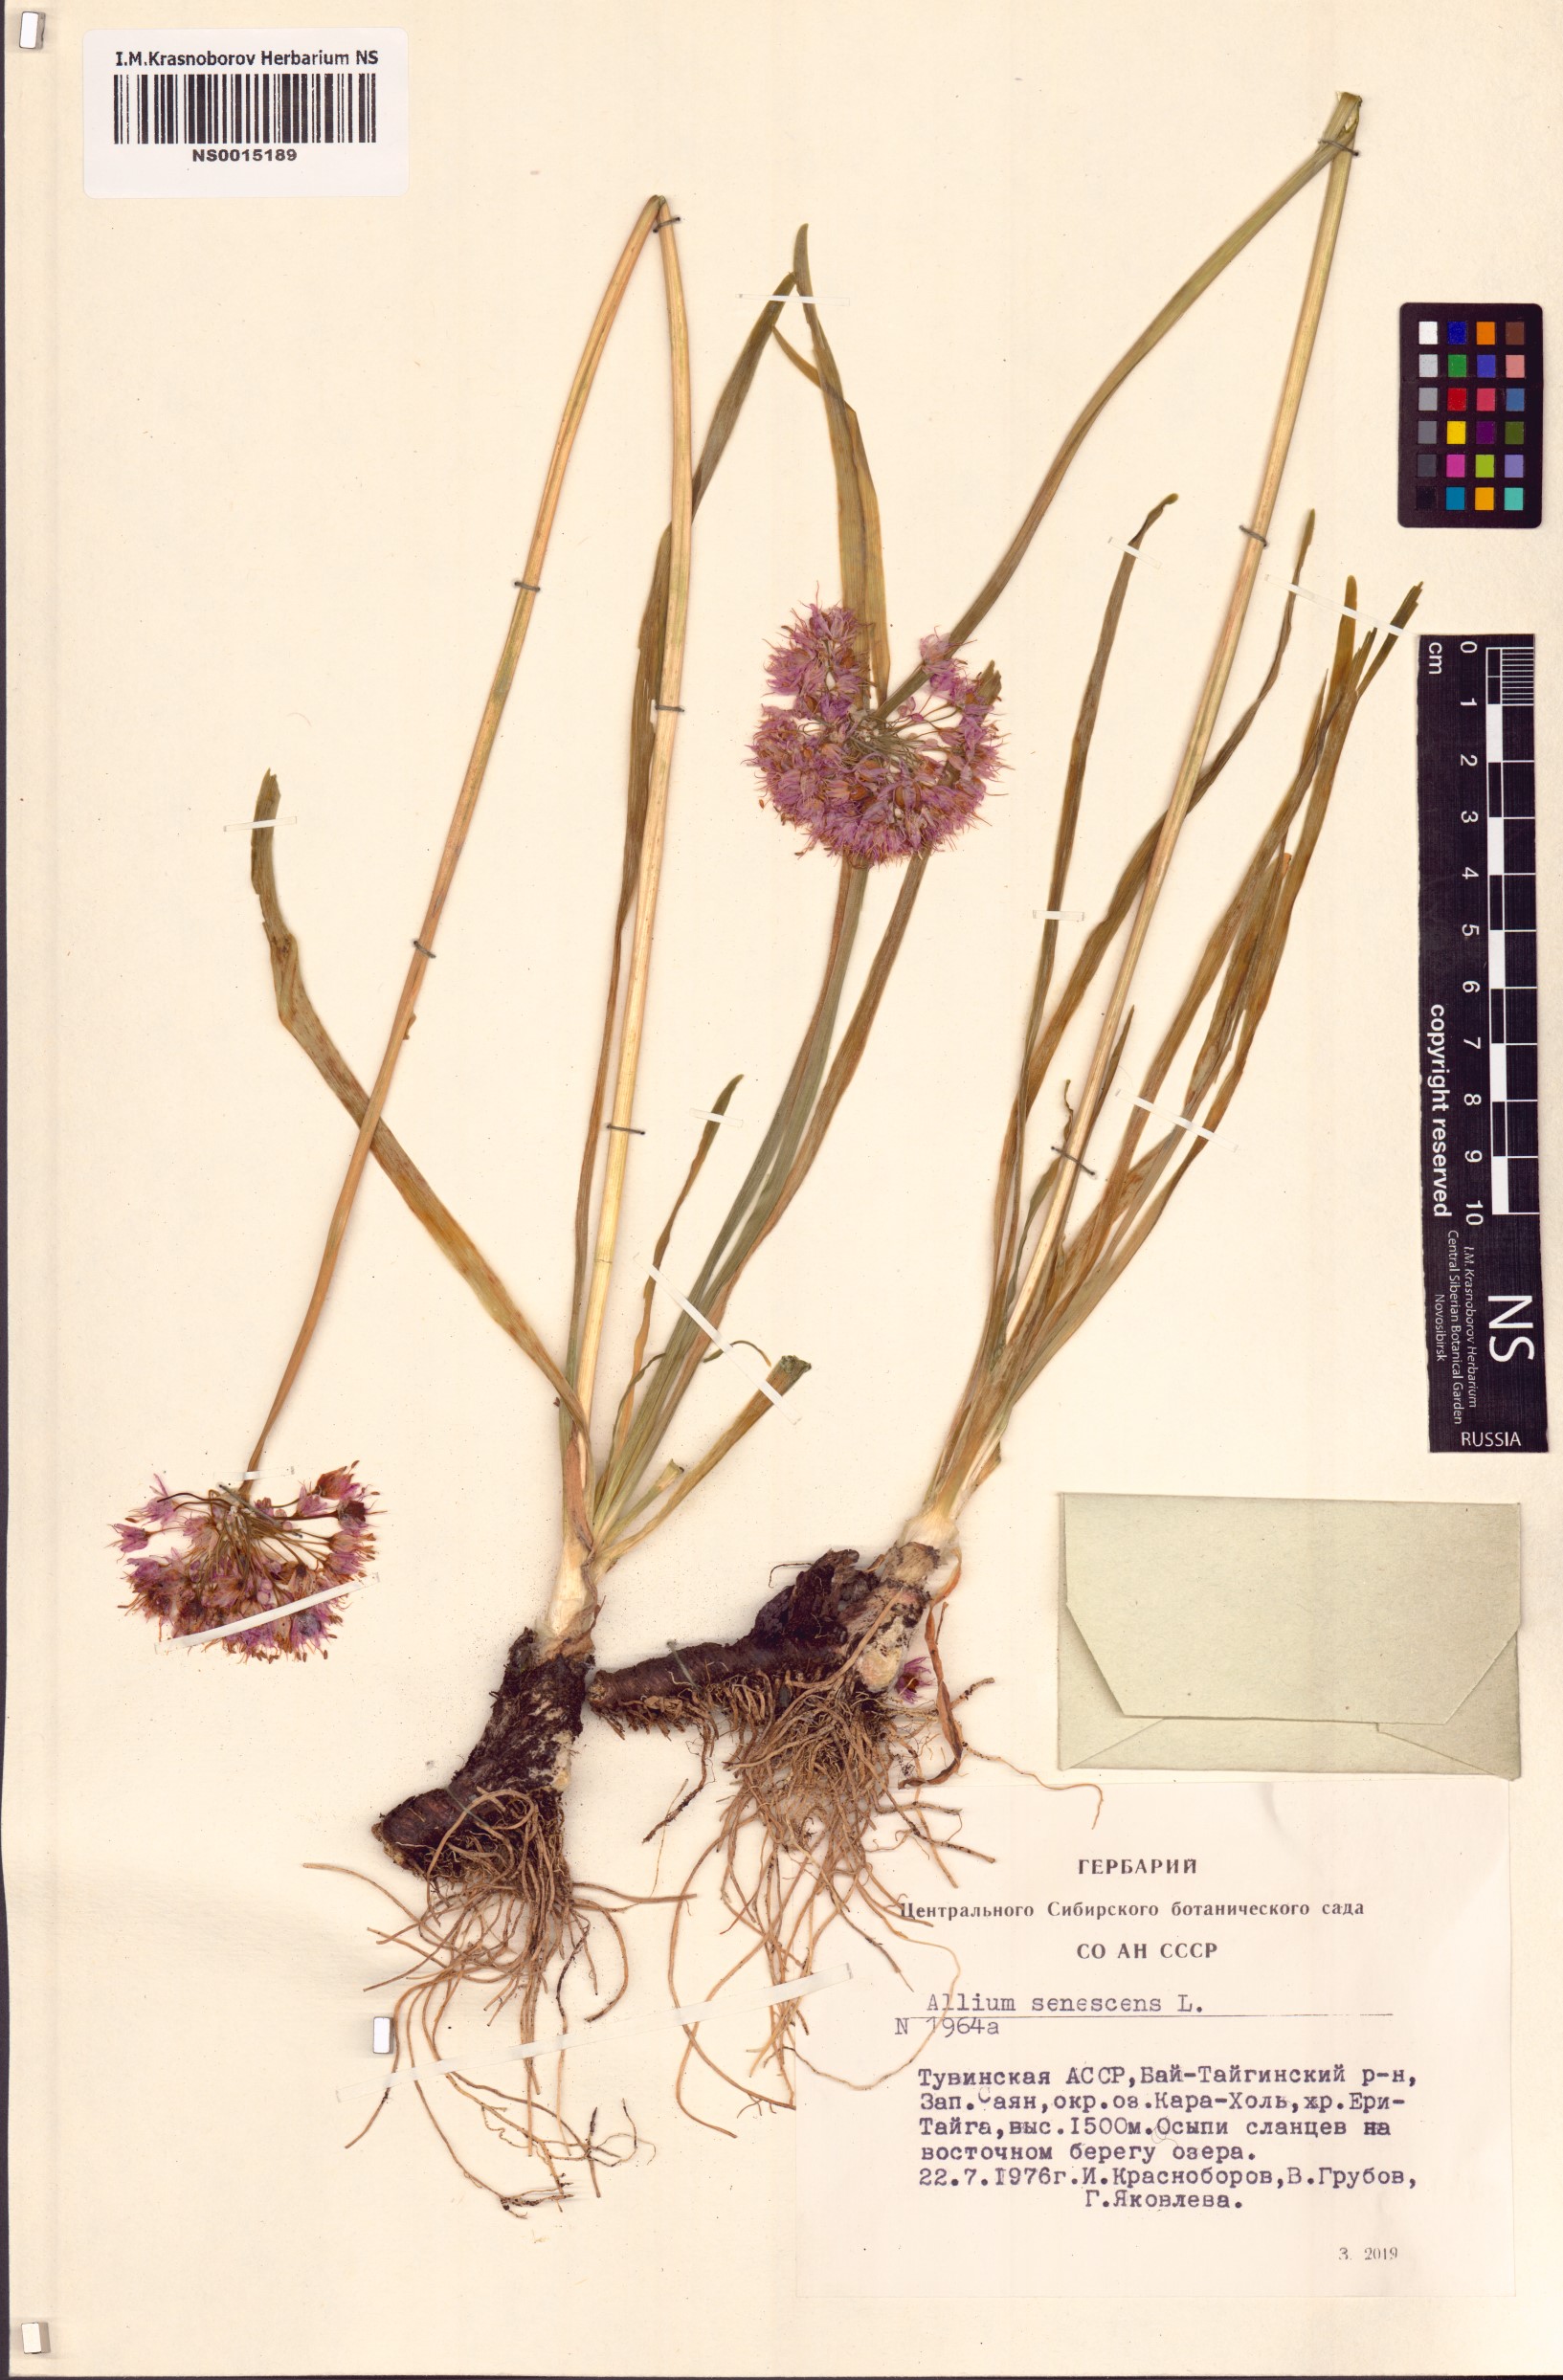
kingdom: Plantae
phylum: Tracheophyta
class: Liliopsida
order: Asparagales
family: Amaryllidaceae
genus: Allium
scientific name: Allium senescens
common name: German garlic
